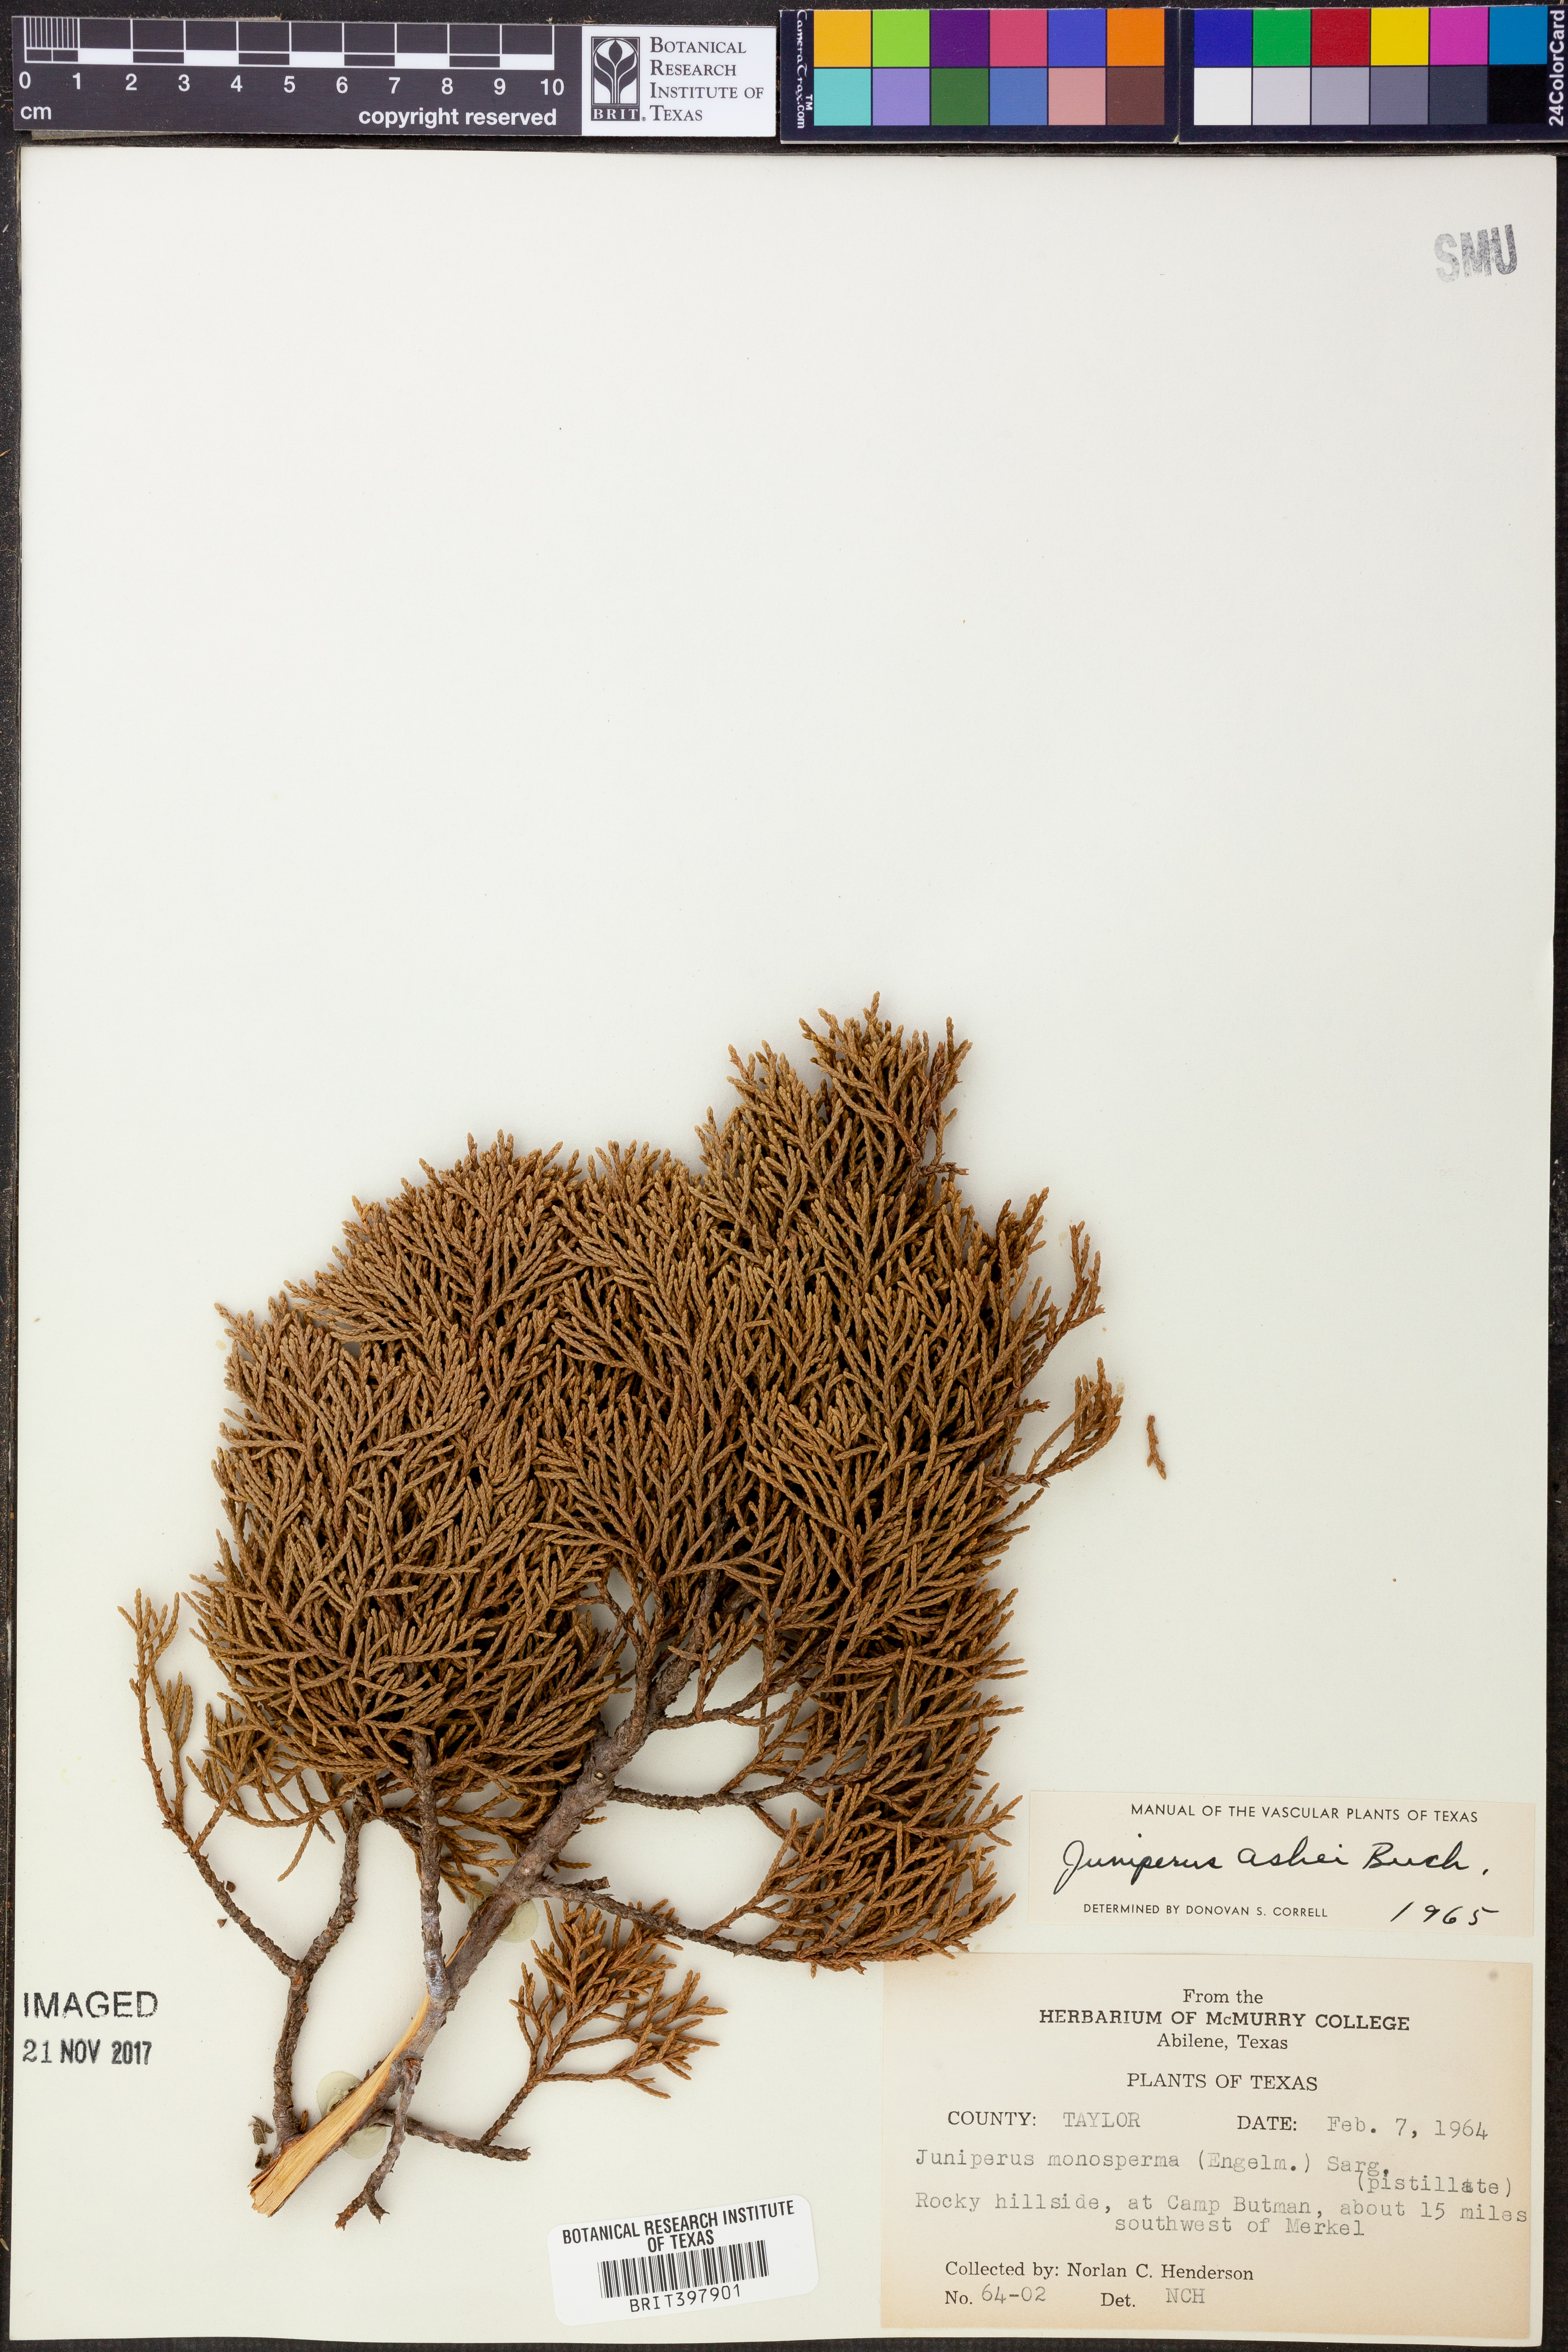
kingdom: Plantae
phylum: Tracheophyta
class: Pinopsida
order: Pinales
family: Cupressaceae
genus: Juniperus
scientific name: Juniperus ashei
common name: Mexican juniper
